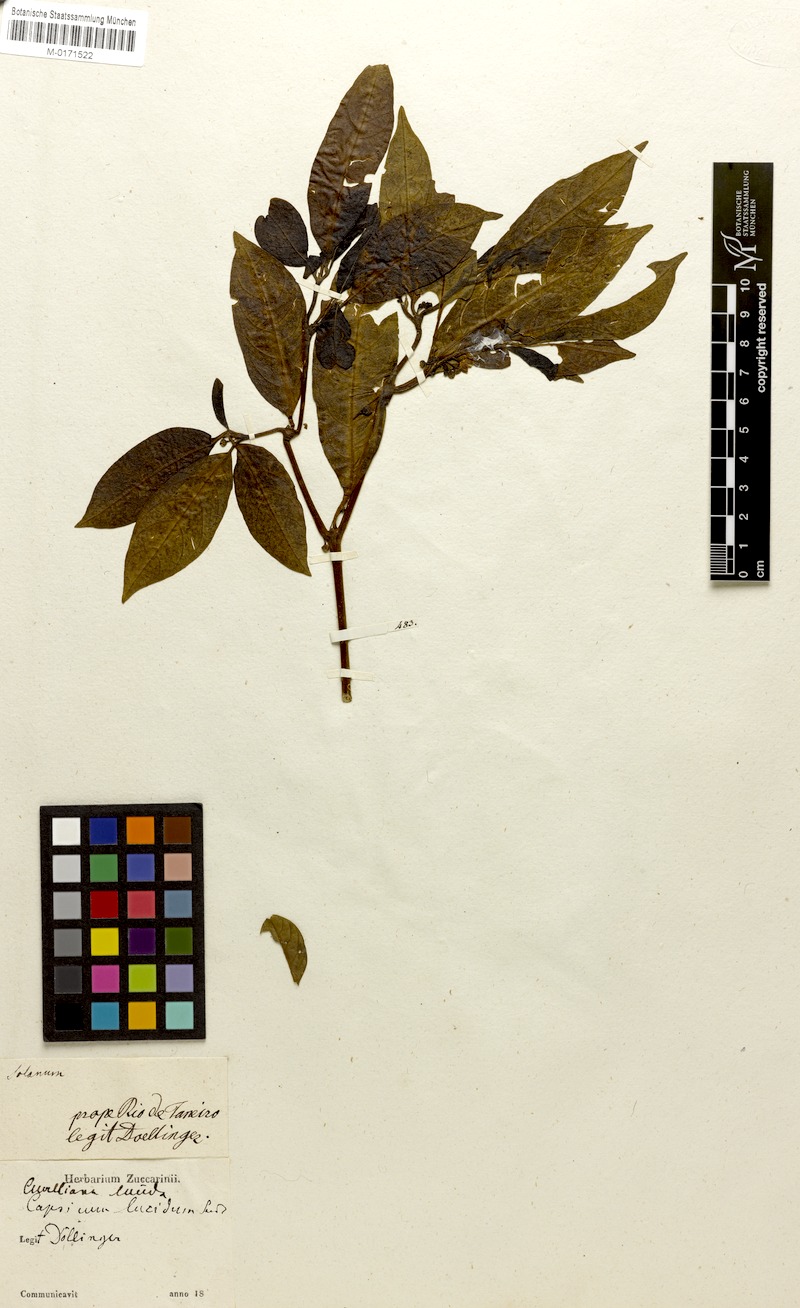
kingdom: Plantae
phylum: Tracheophyta
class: Magnoliopsida
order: Solanales
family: Solanaceae
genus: Athenaea
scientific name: Athenaea fasciculata
